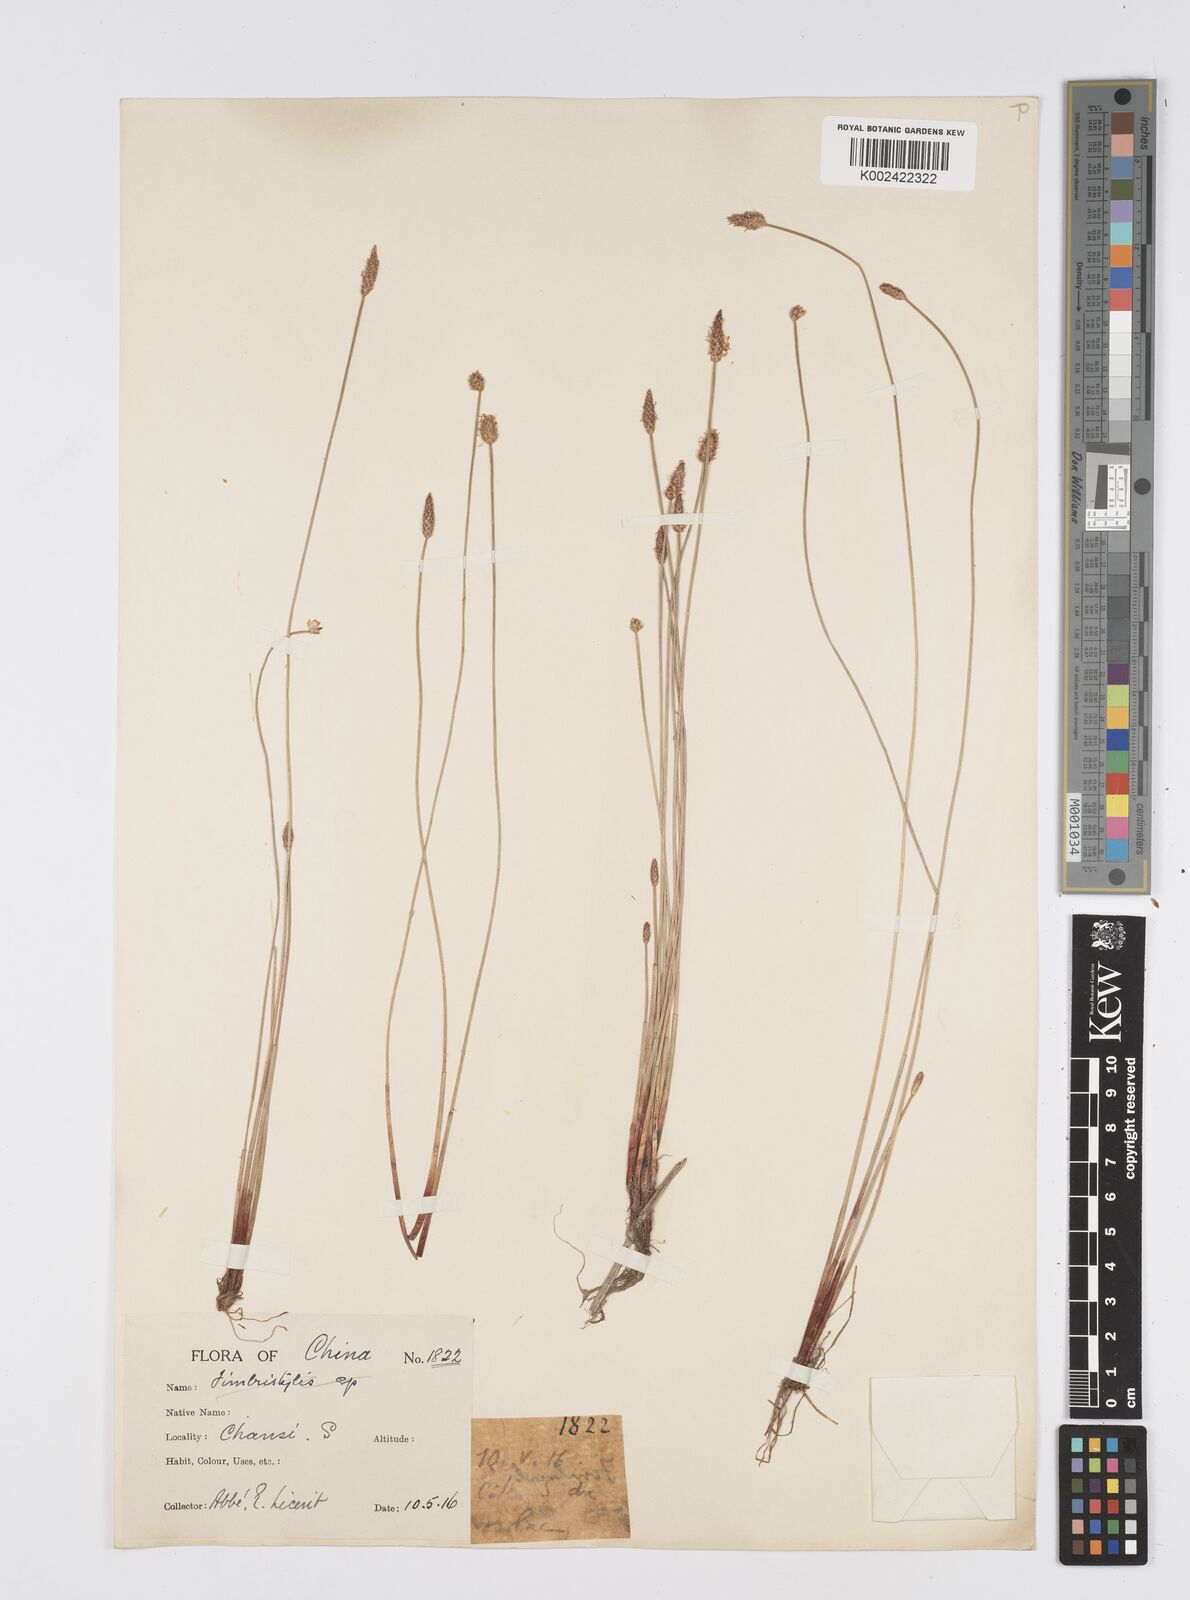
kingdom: Plantae
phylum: Tracheophyta
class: Liliopsida
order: Poales
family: Cyperaceae
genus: Eleocharis
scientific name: Eleocharis
